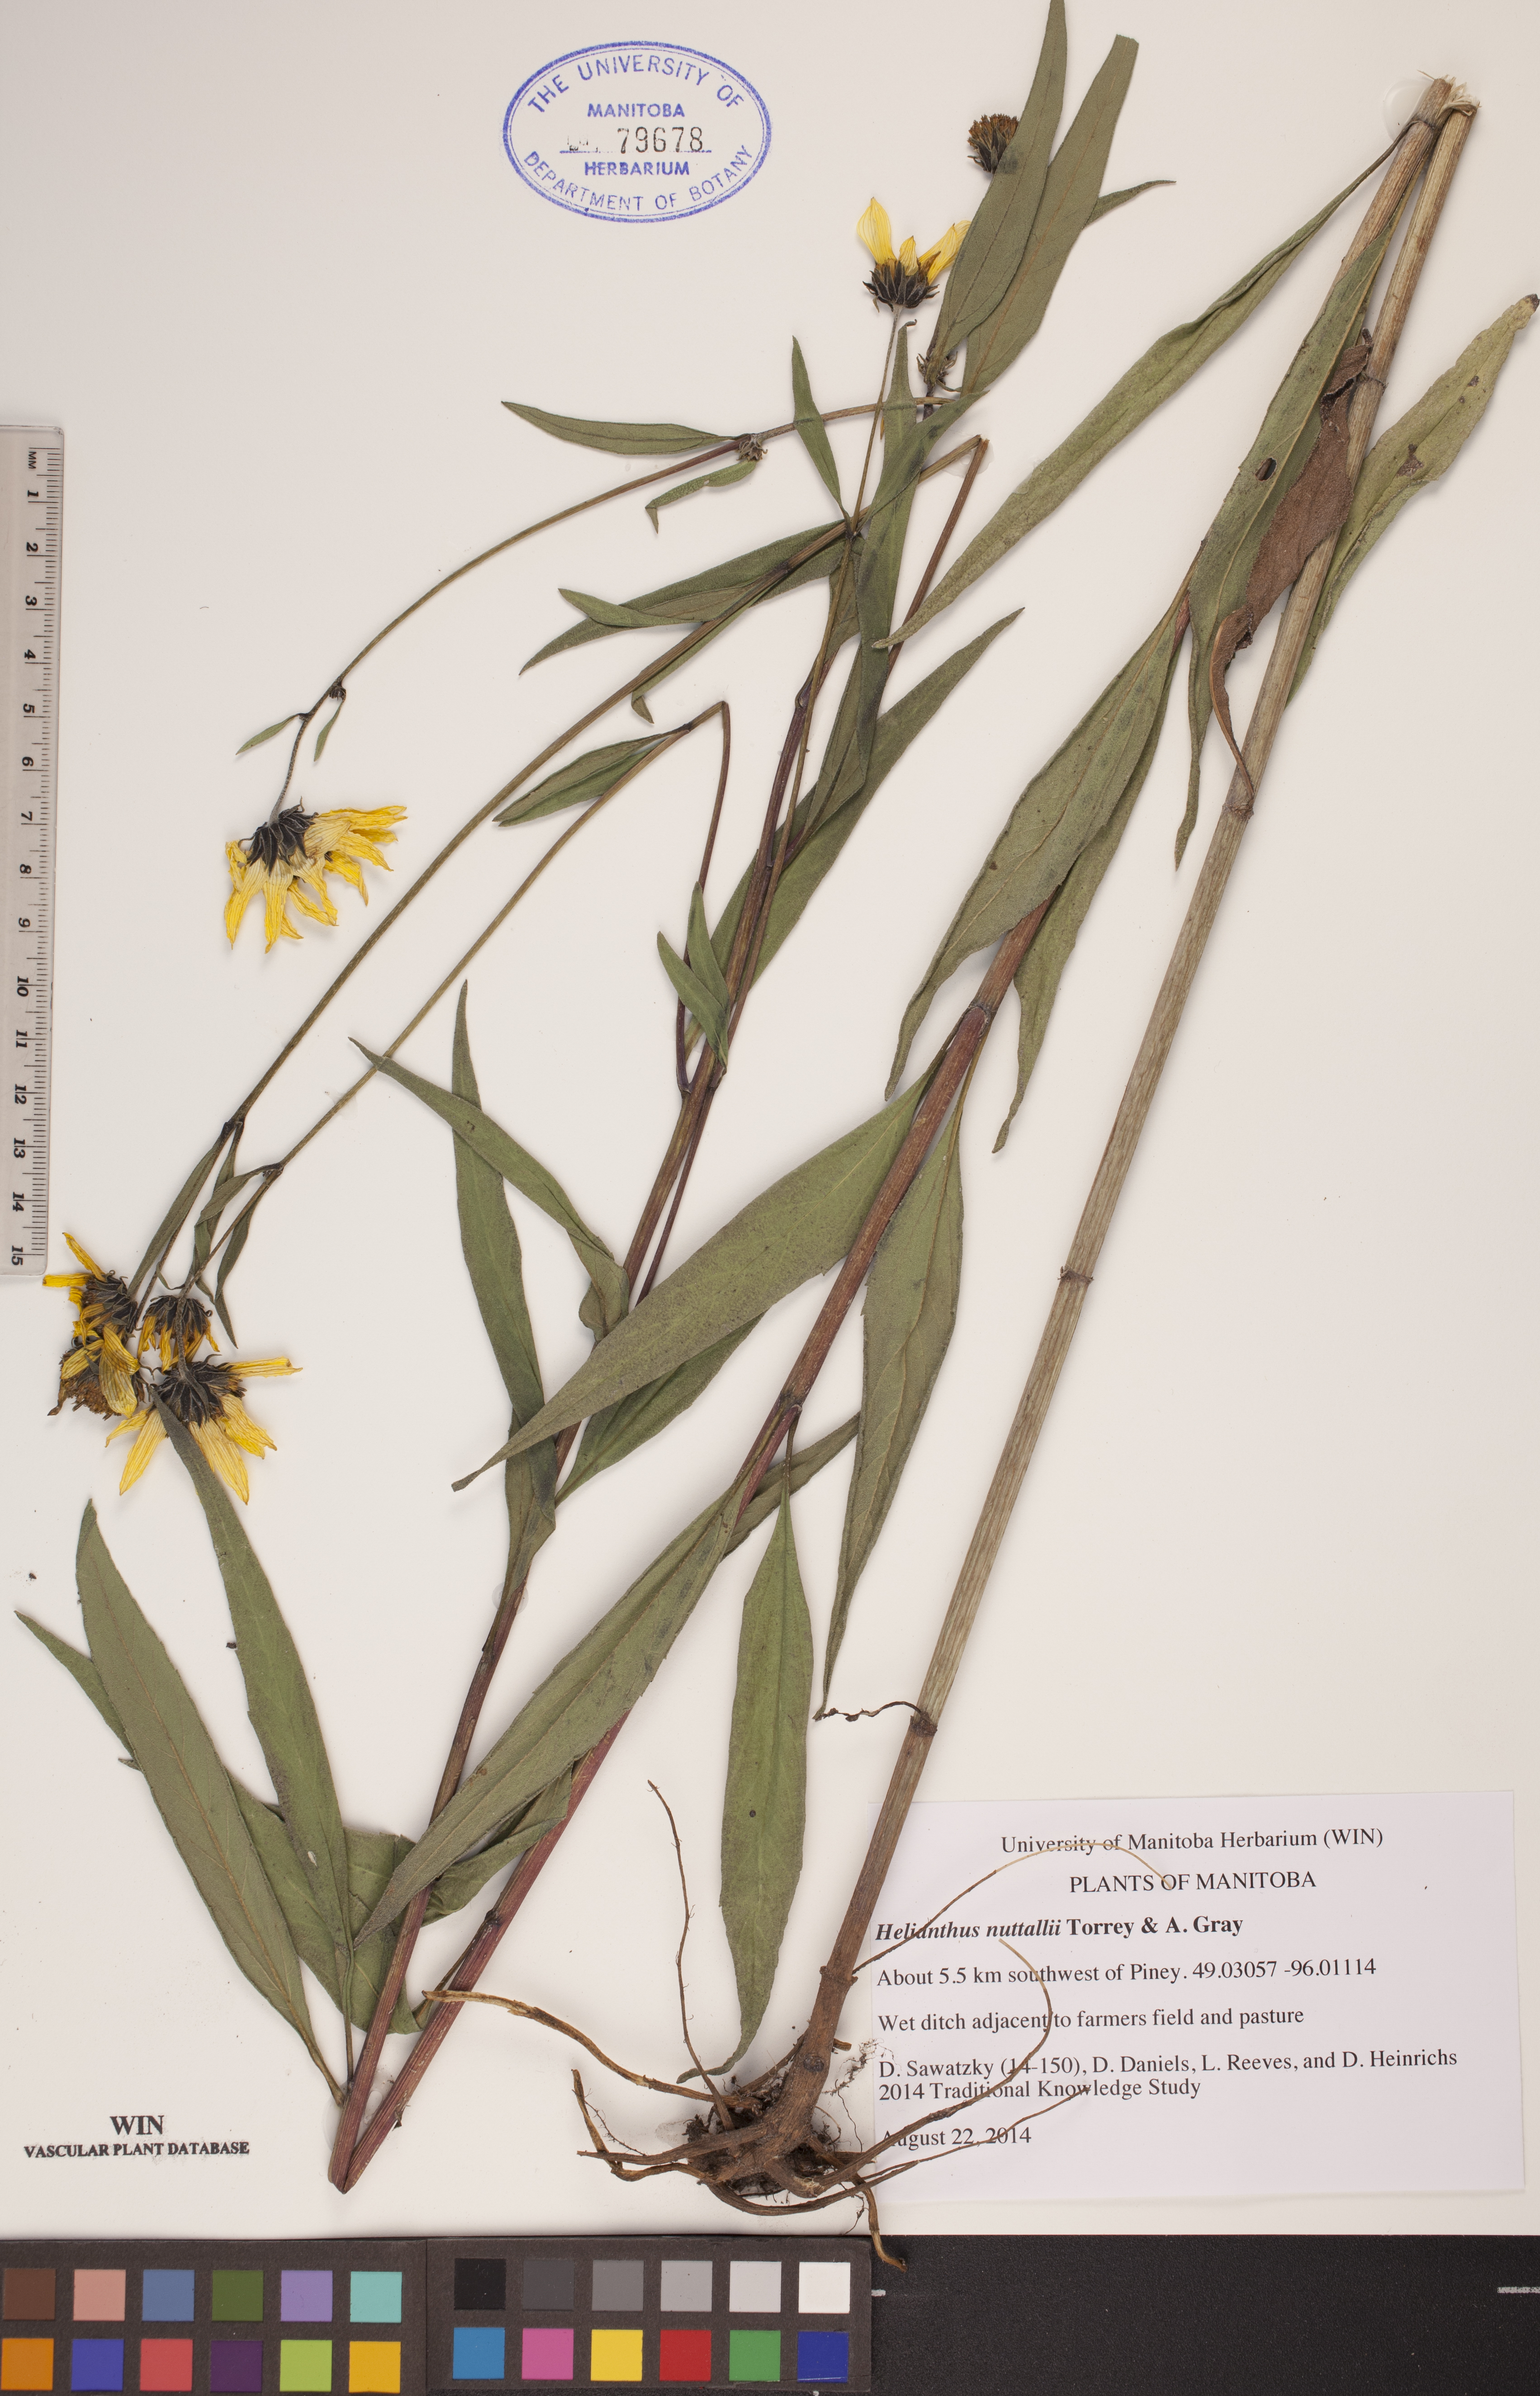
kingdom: Plantae
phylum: Tracheophyta
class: Magnoliopsida
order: Asterales
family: Asteraceae
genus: Helianthus
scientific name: Helianthus nuttallii
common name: Nuttall's sunflower
